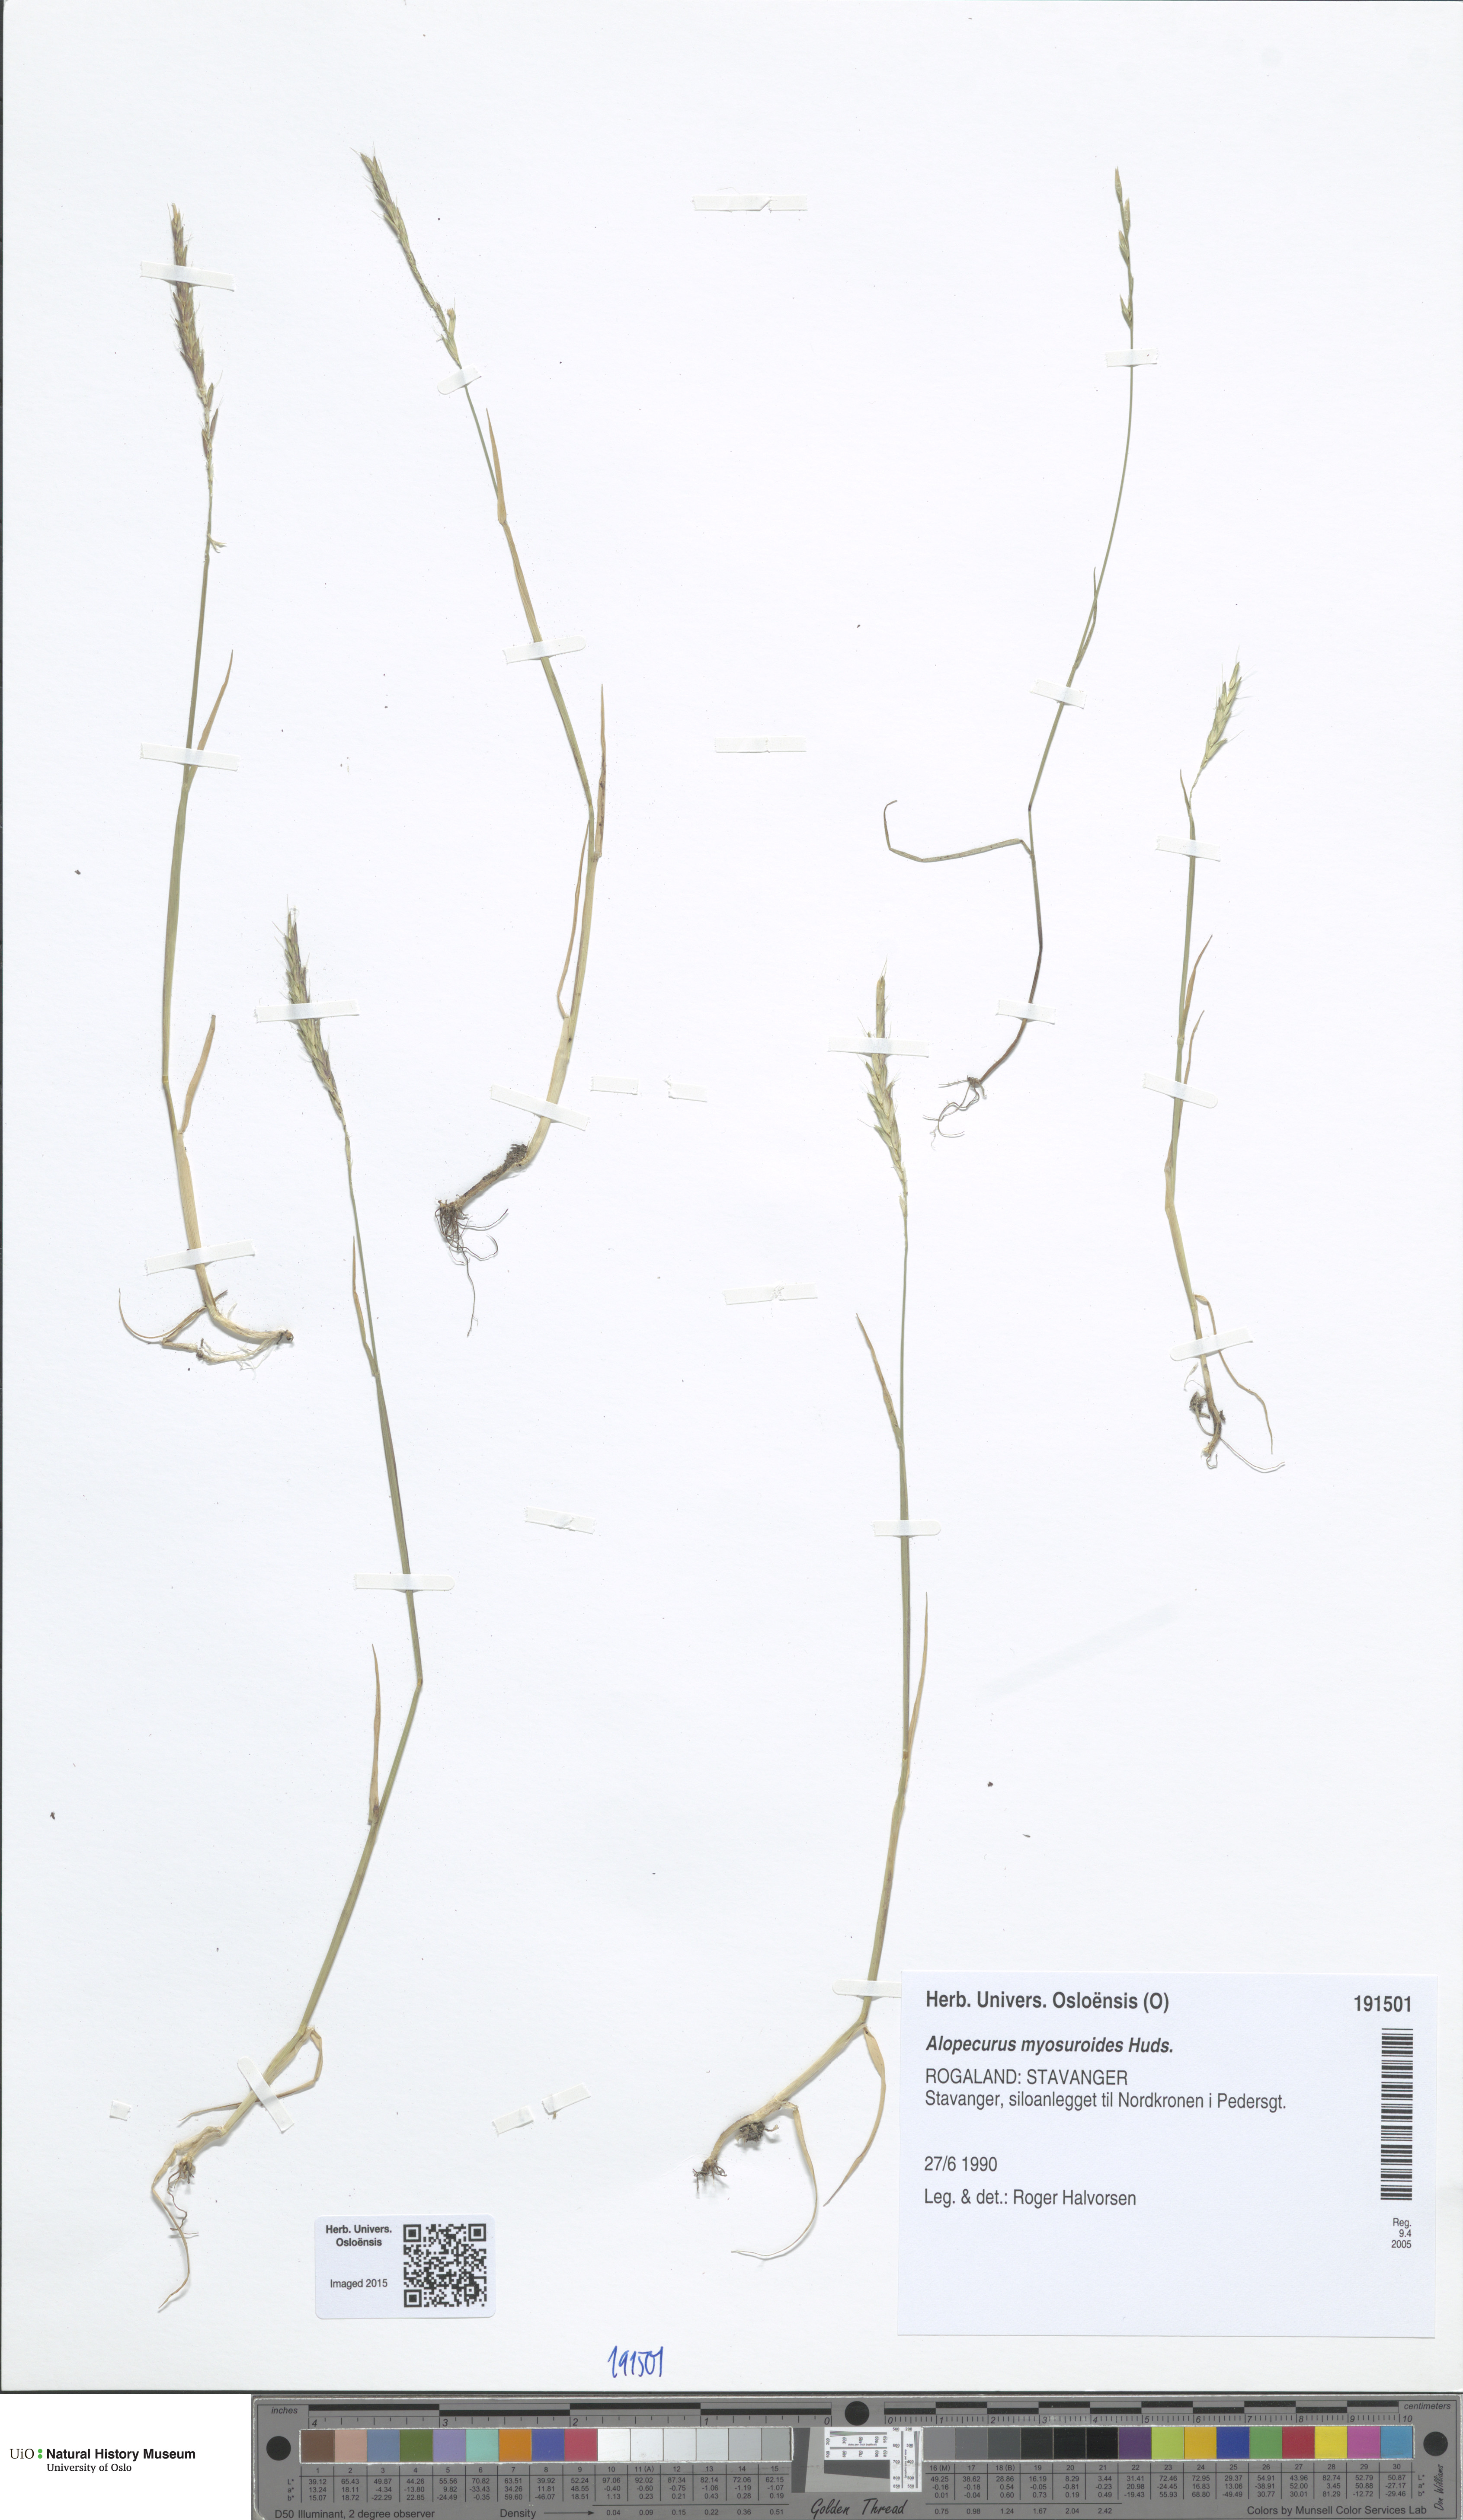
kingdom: Plantae
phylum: Tracheophyta
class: Liliopsida
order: Poales
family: Poaceae
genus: Alopecurus
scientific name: Alopecurus myosuroides
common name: Black-grass
